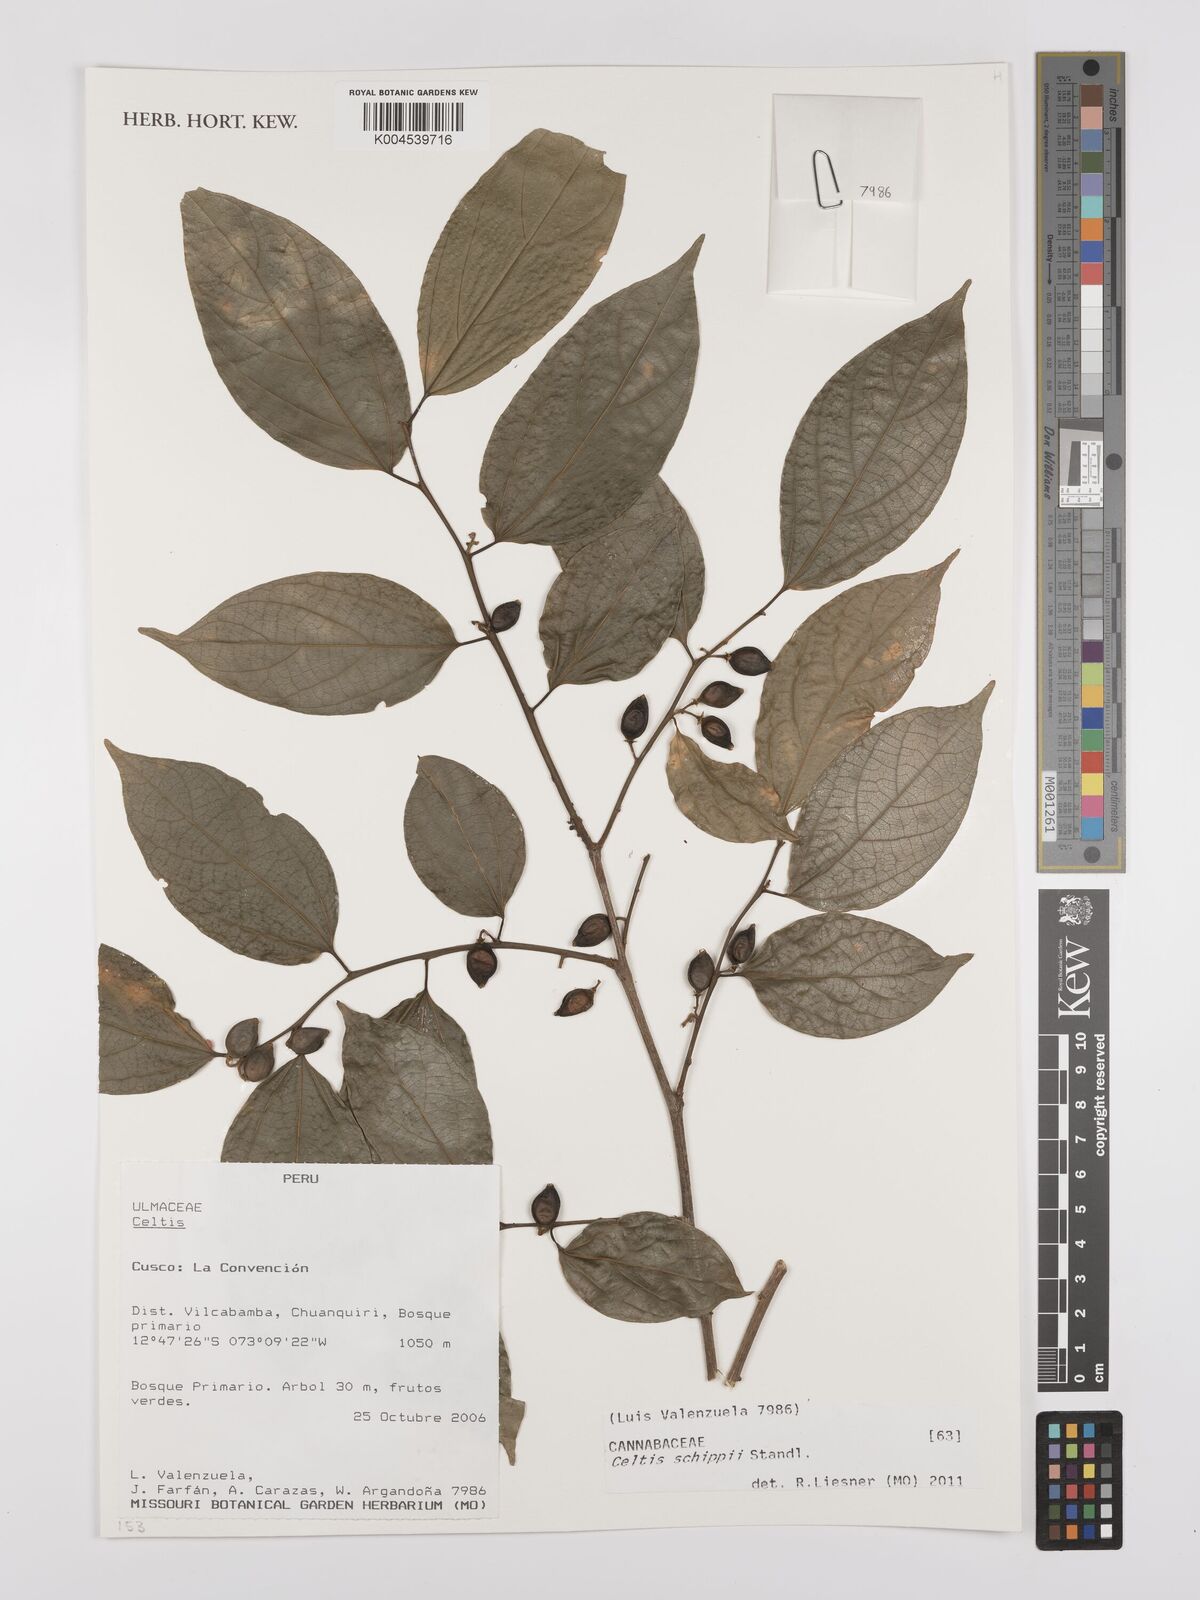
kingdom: Plantae
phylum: Tracheophyta
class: Magnoliopsida
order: Rosales
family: Cannabaceae
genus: Celtis
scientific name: Celtis schippii
